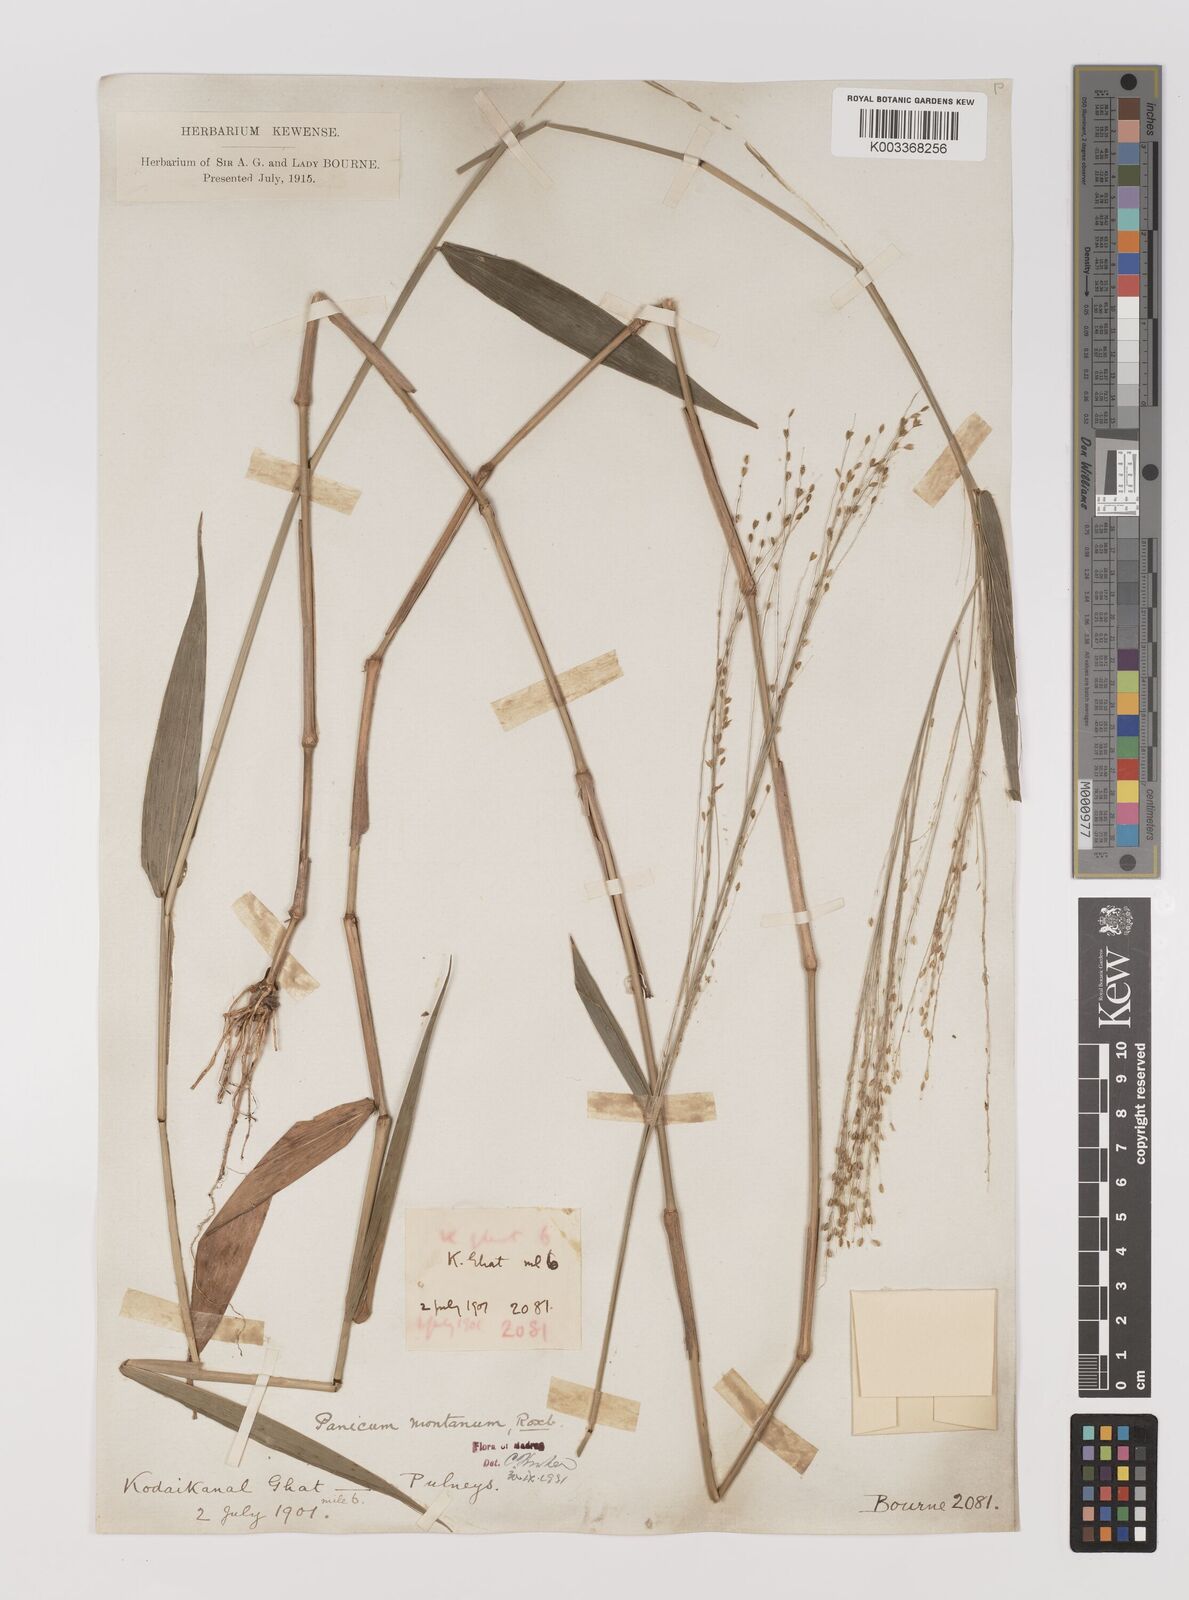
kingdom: Plantae
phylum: Tracheophyta
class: Liliopsida
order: Poales
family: Poaceae
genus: Panicum
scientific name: Panicum notatum
